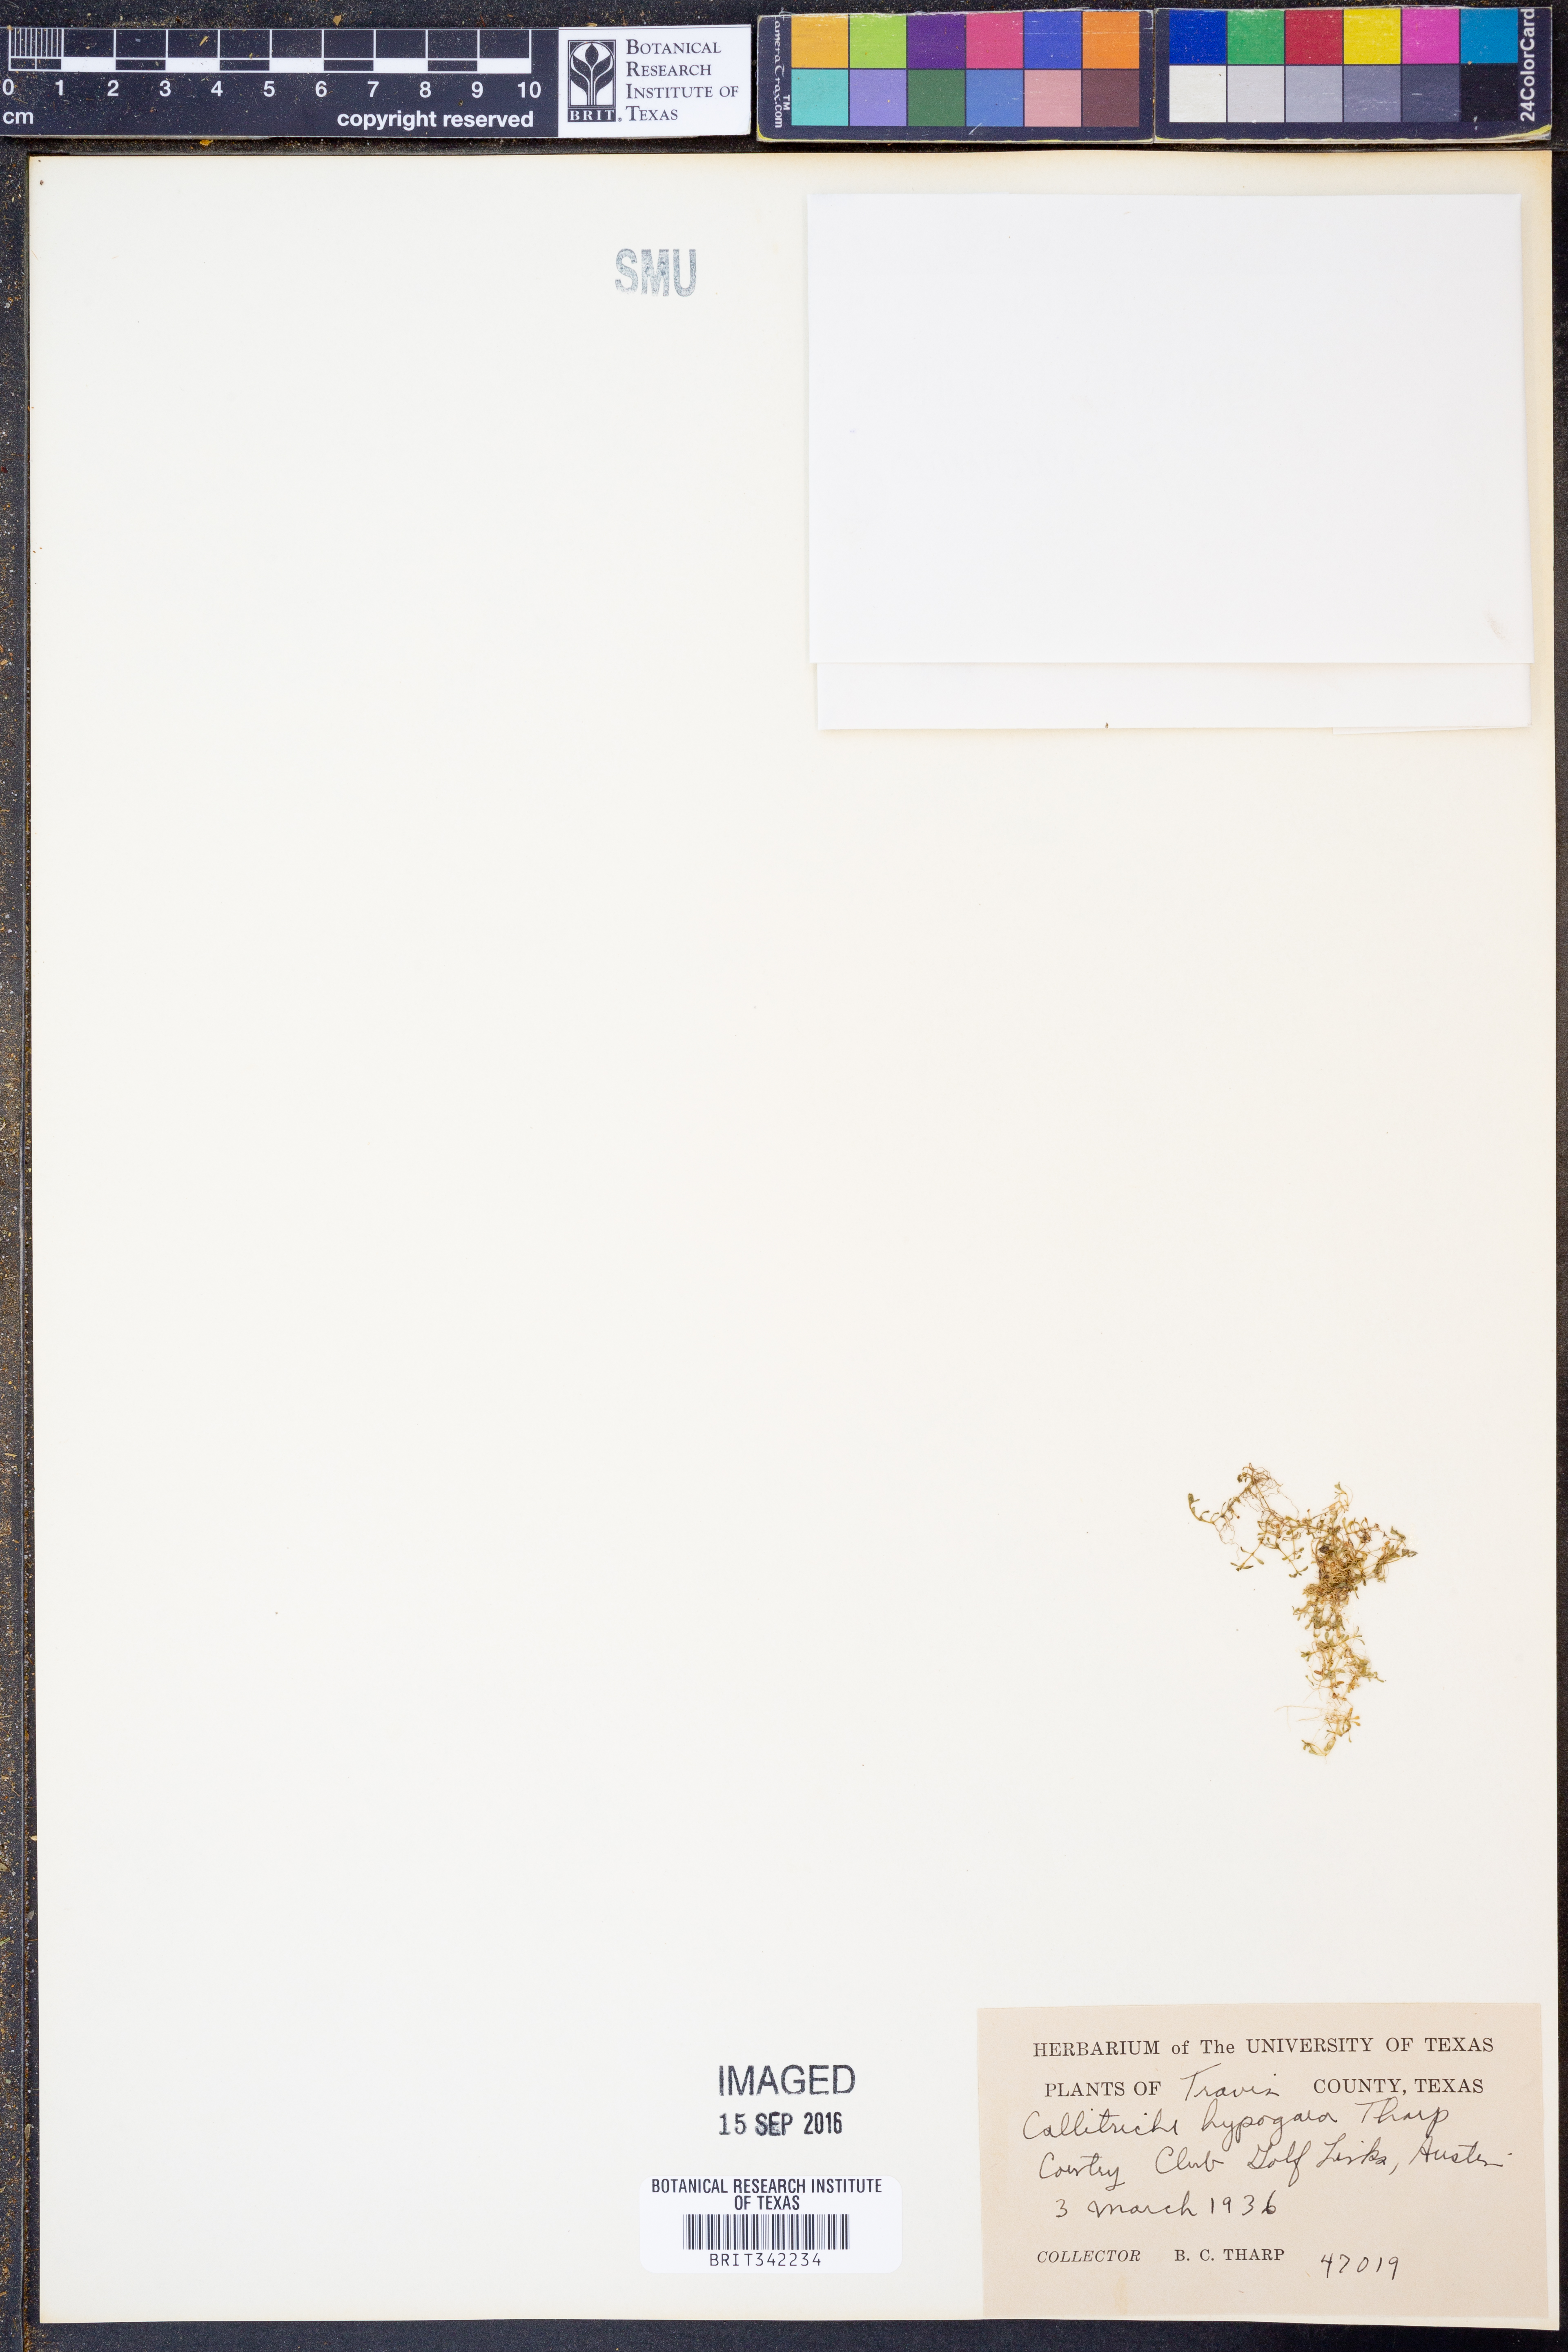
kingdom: Plantae
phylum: Tracheophyta
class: Magnoliopsida
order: Lamiales
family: Plantaginaceae
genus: Callitriche
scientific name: Callitriche
